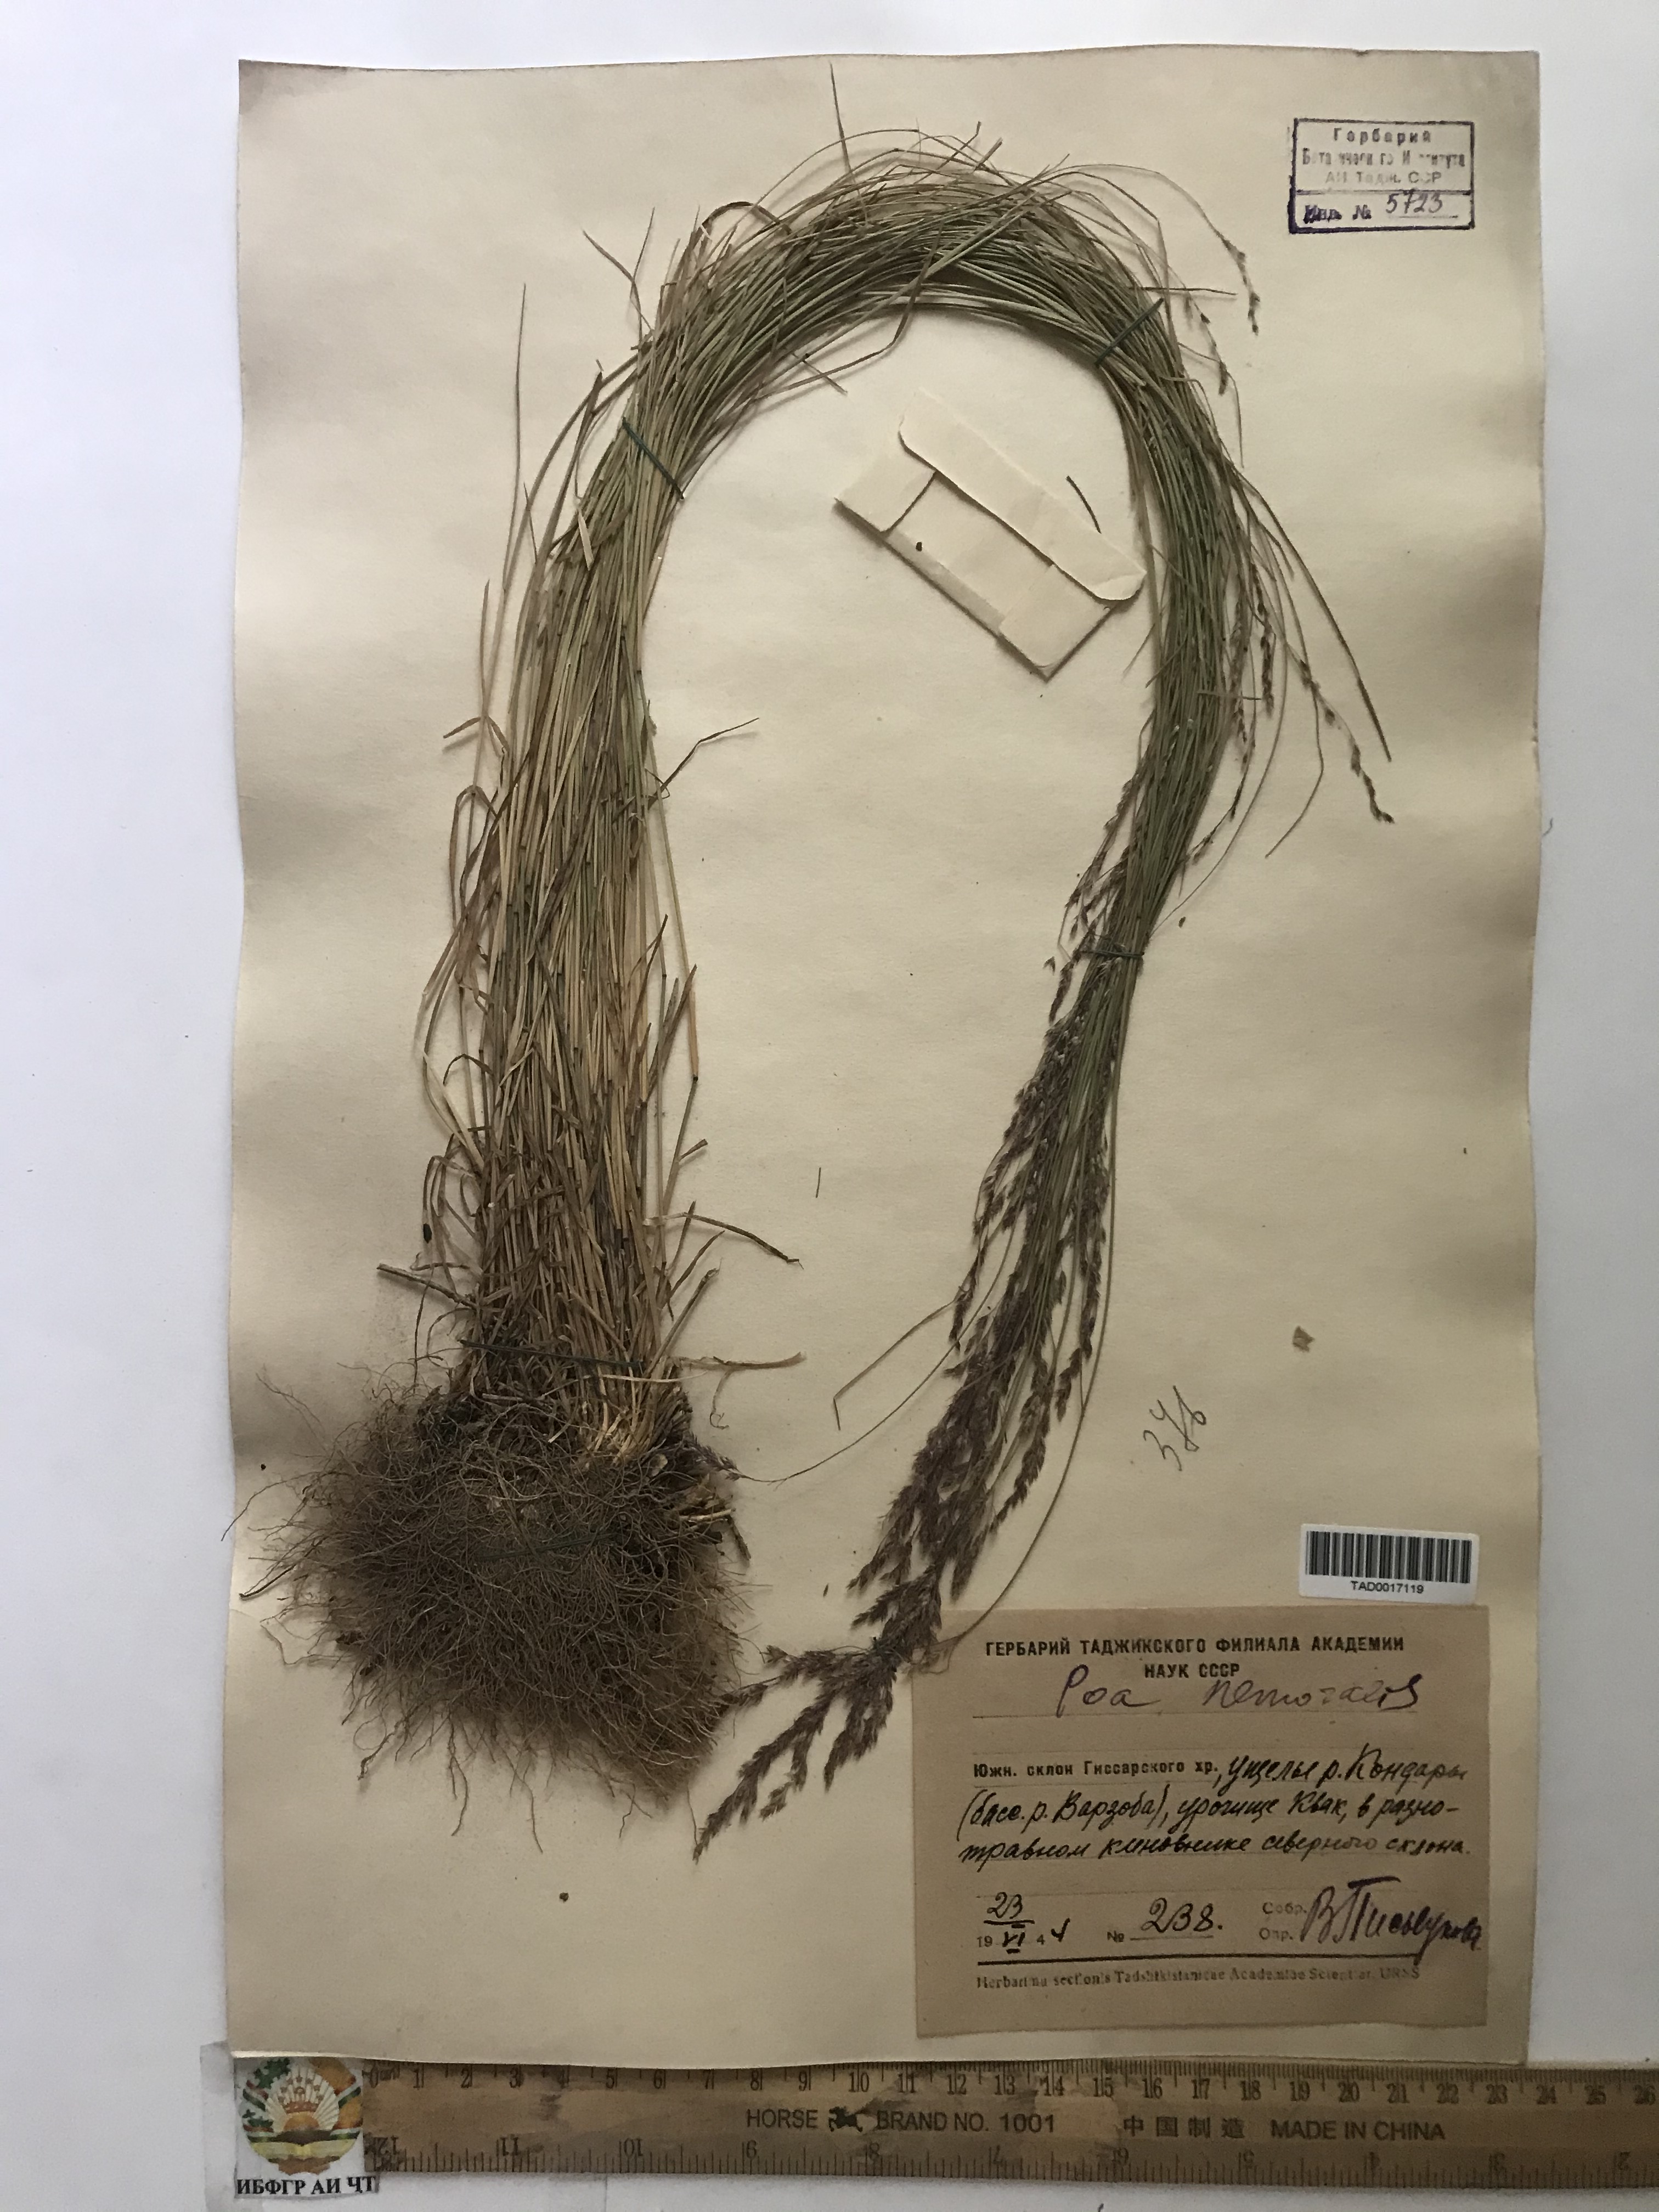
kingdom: Plantae
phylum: Tracheophyta
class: Liliopsida
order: Poales
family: Poaceae
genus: Poa
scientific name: Poa nemoralis
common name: Wood bluegrass
